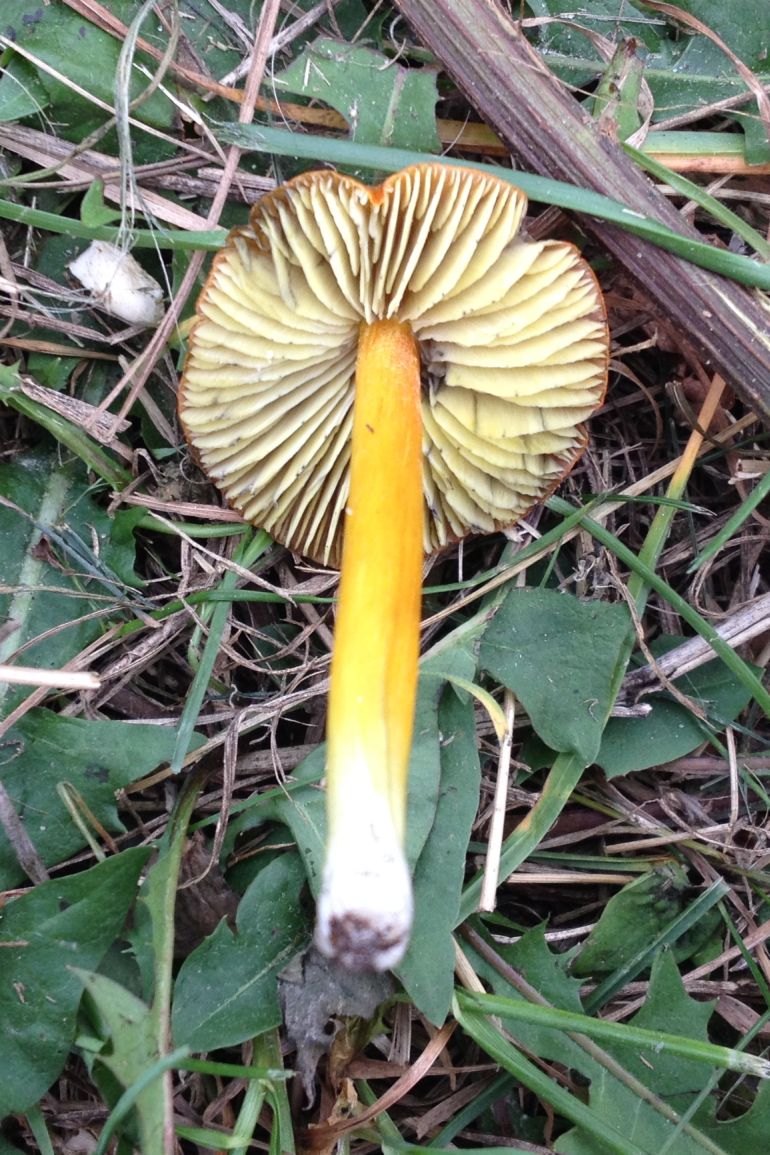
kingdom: Fungi
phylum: Basidiomycota
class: Agaricomycetes
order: Agaricales
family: Hygrophoraceae
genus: Hygrocybe
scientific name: Hygrocybe conica
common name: kegle-vokshat
